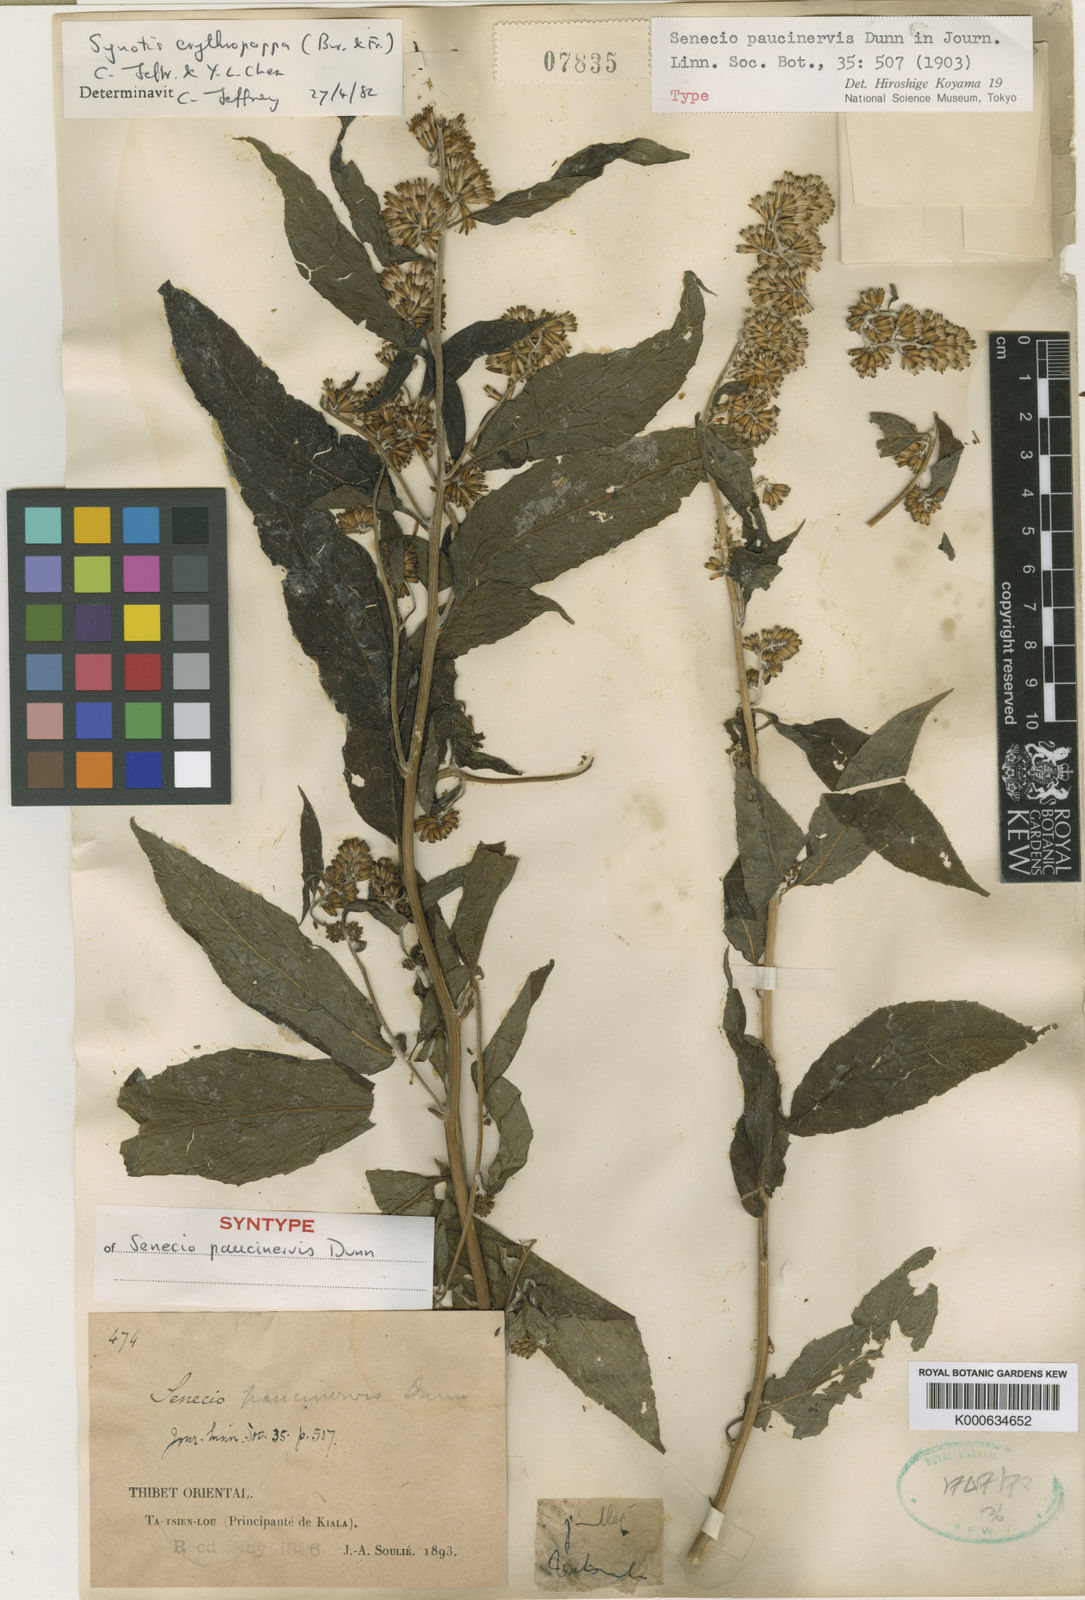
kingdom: Plantae
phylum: Tracheophyta
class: Magnoliopsida
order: Asterales
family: Asteraceae
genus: Synotis
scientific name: Synotis erythropappa
